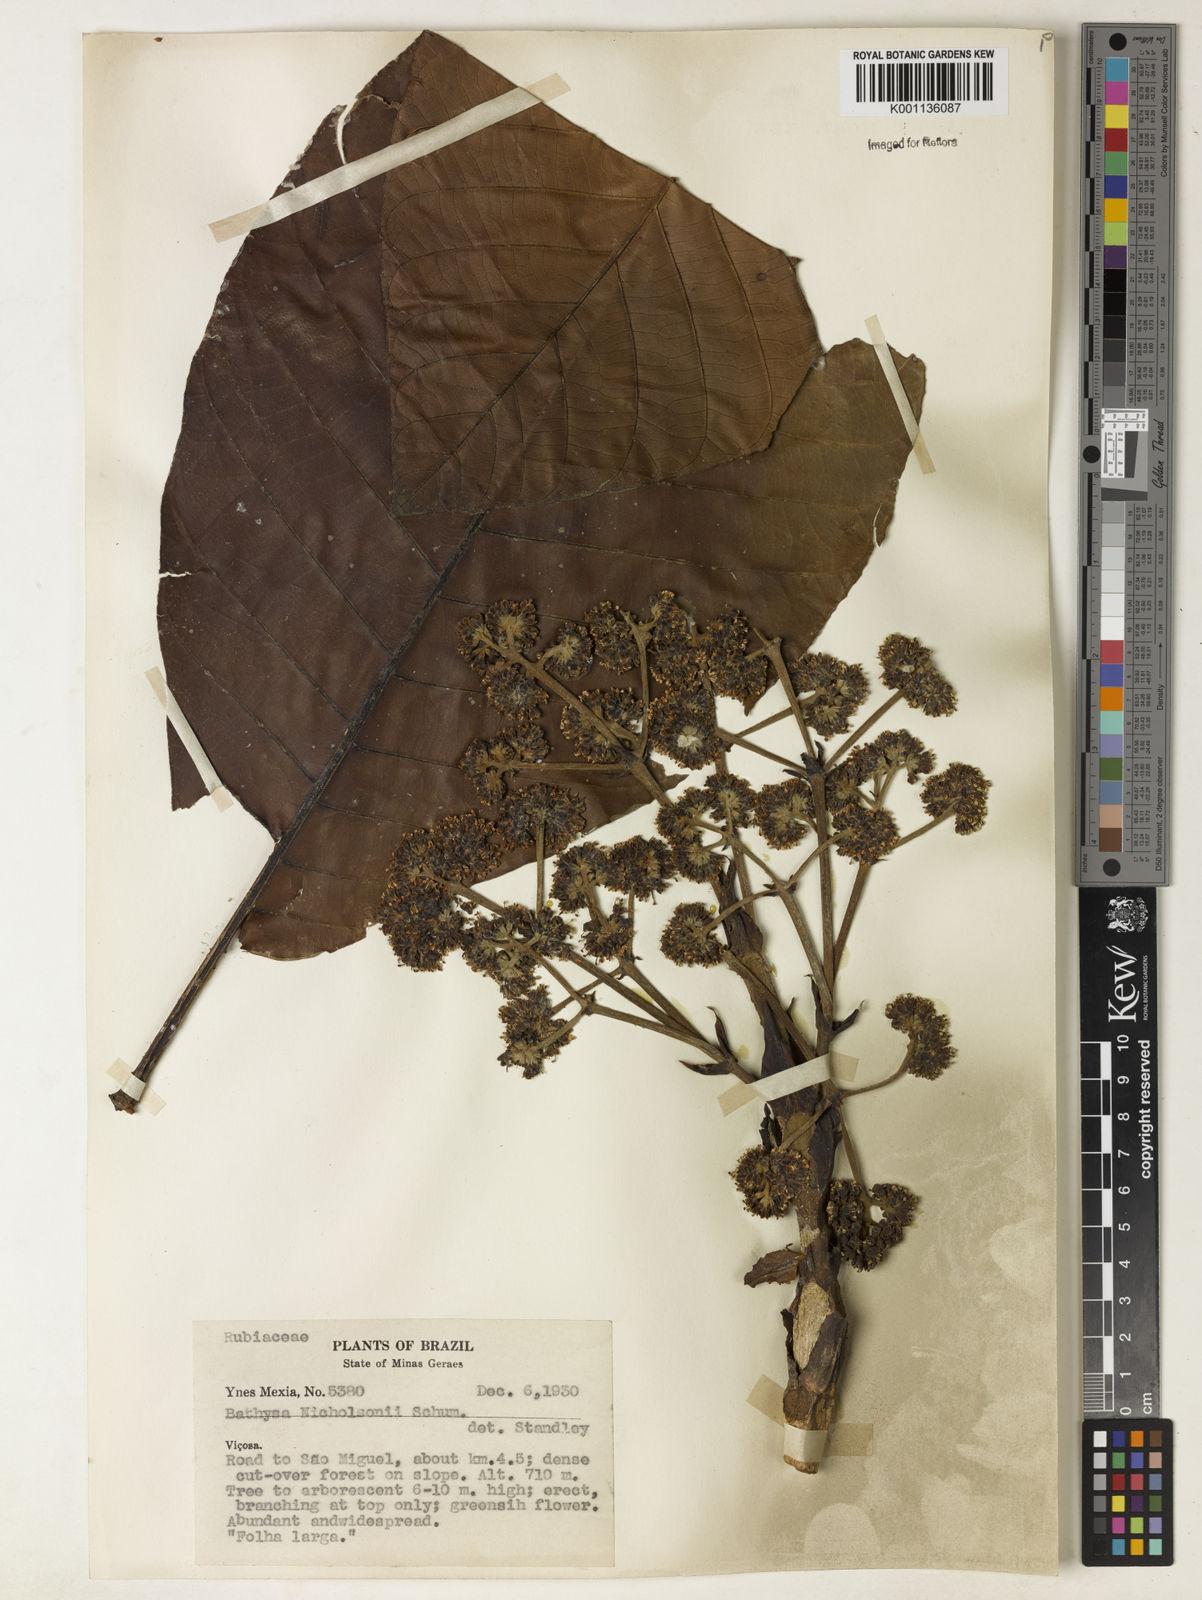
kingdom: Plantae
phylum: Tracheophyta
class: Magnoliopsida
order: Gentianales
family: Rubiaceae
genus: Bathysa
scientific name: Bathysa nicholsonii
